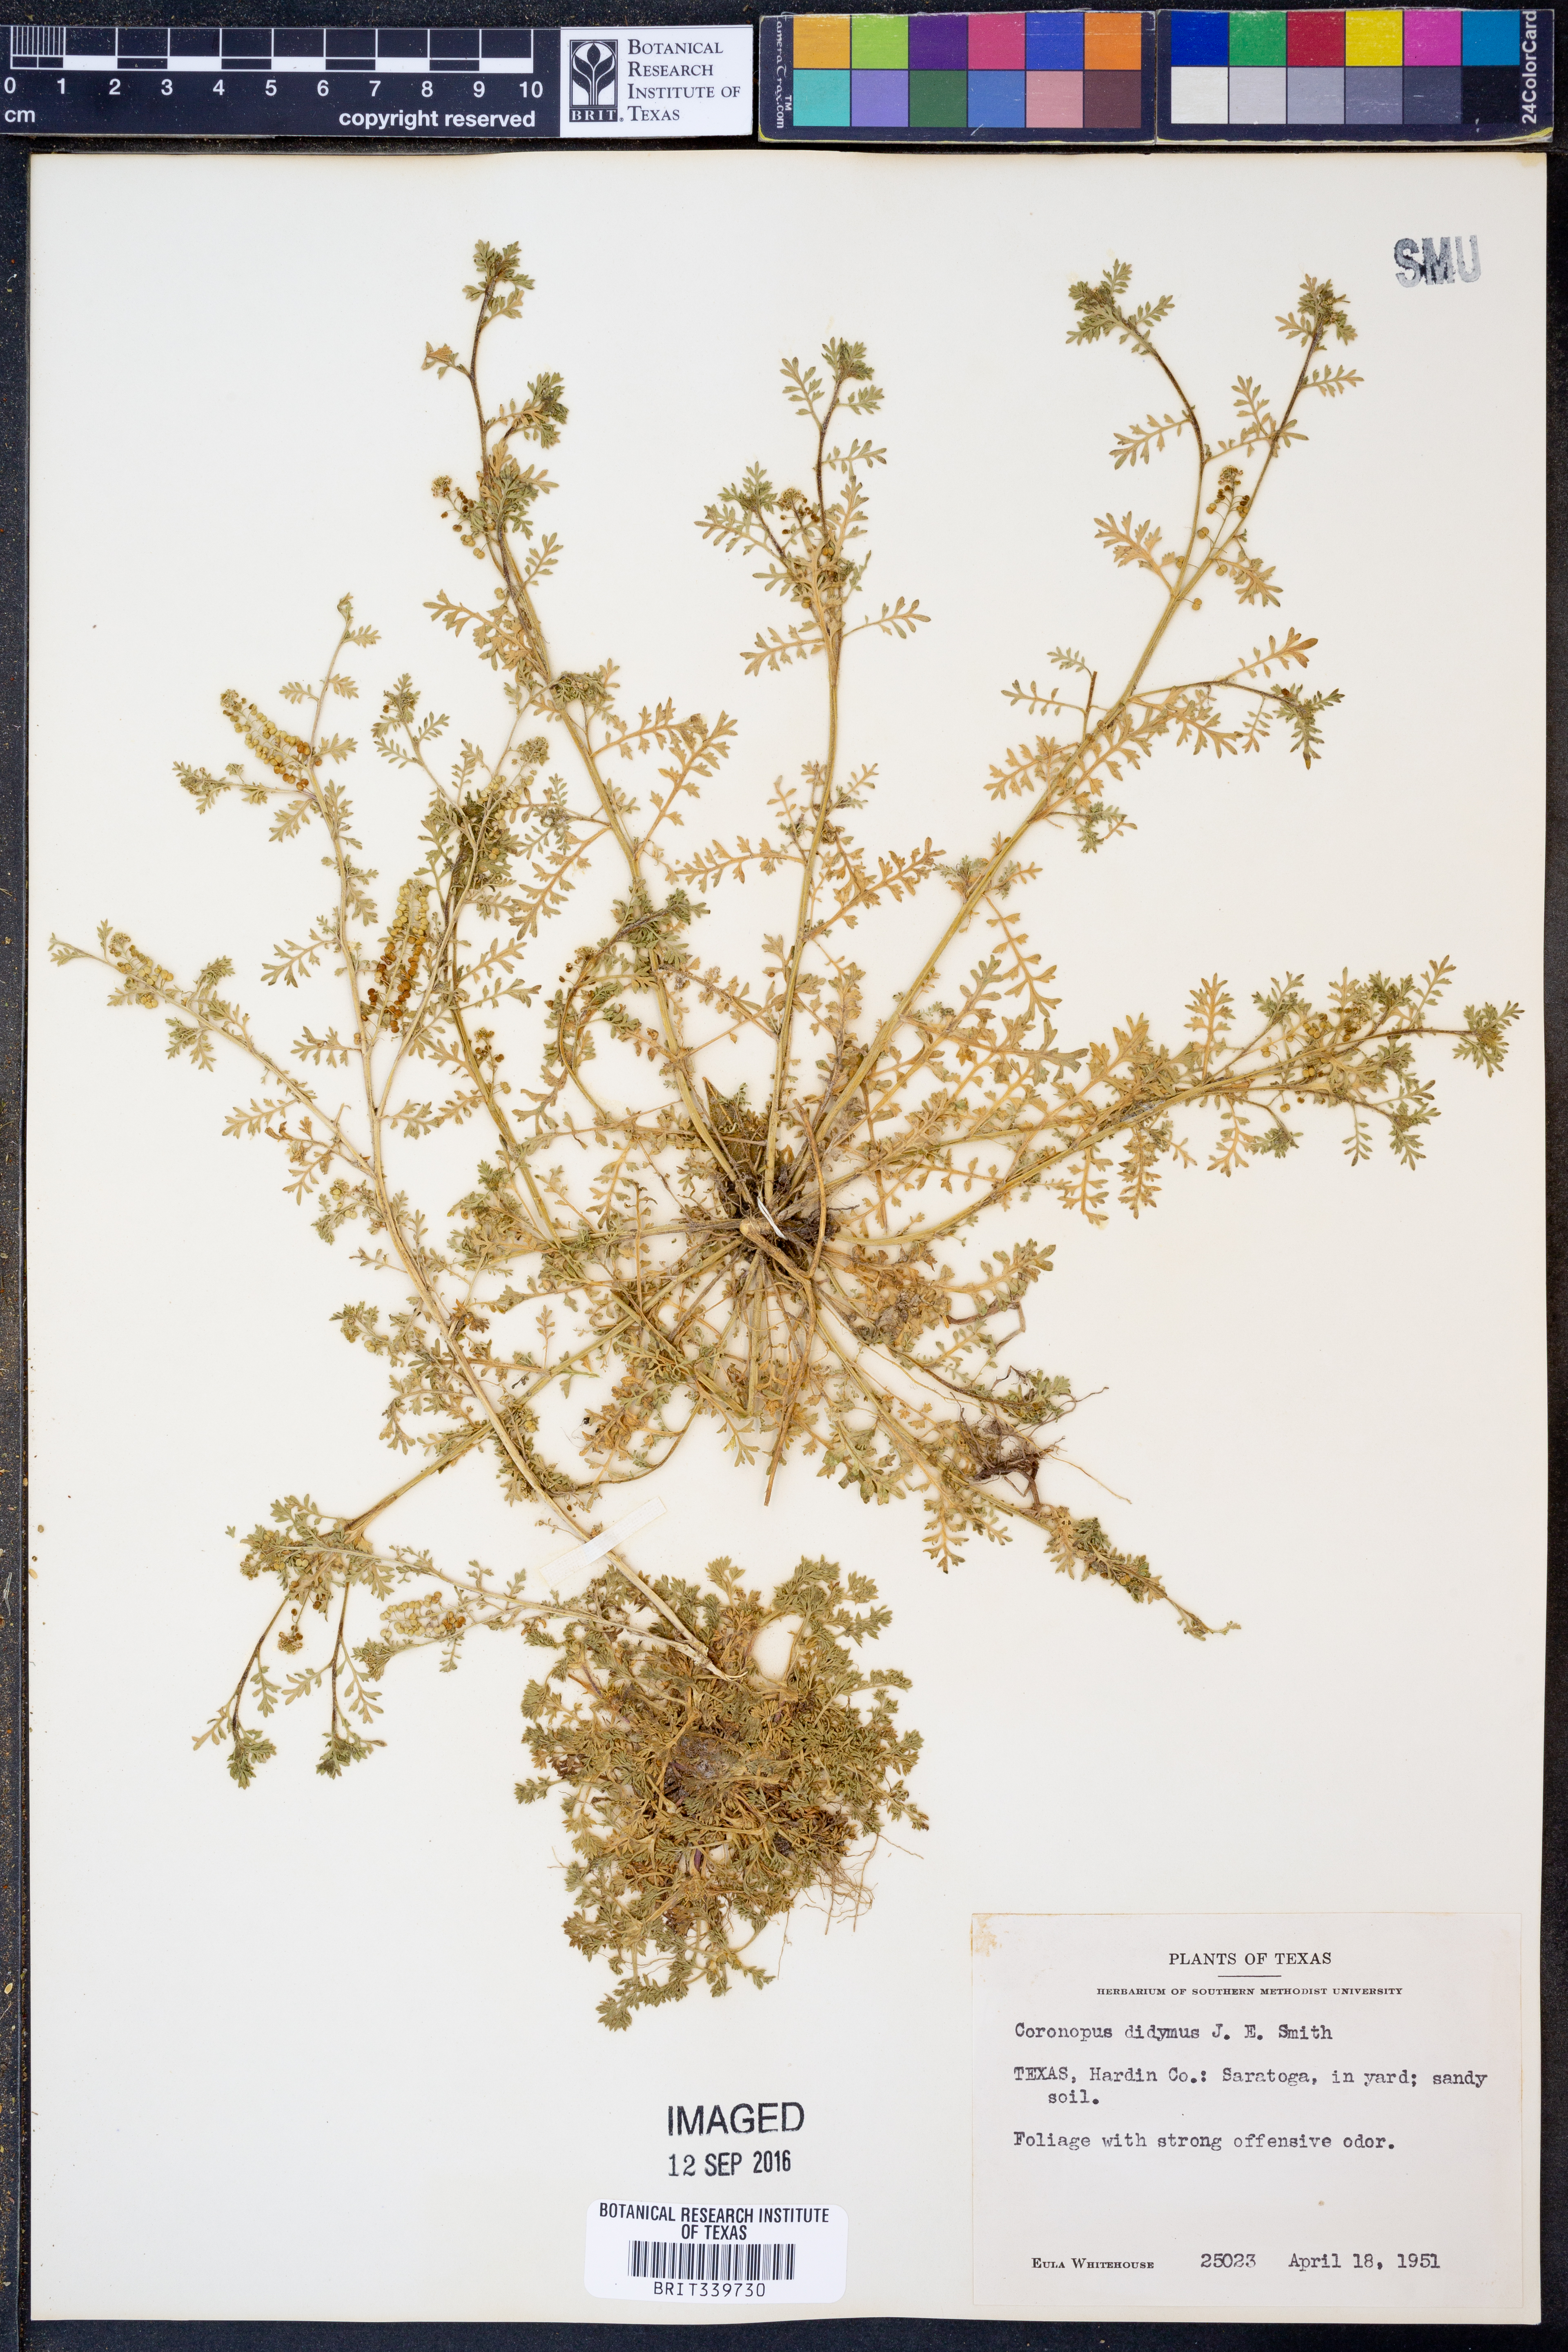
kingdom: Plantae
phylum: Tracheophyta
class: Magnoliopsida
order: Brassicales
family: Brassicaceae
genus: Lepidium
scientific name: Lepidium didymum
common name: Lesser swinecress
